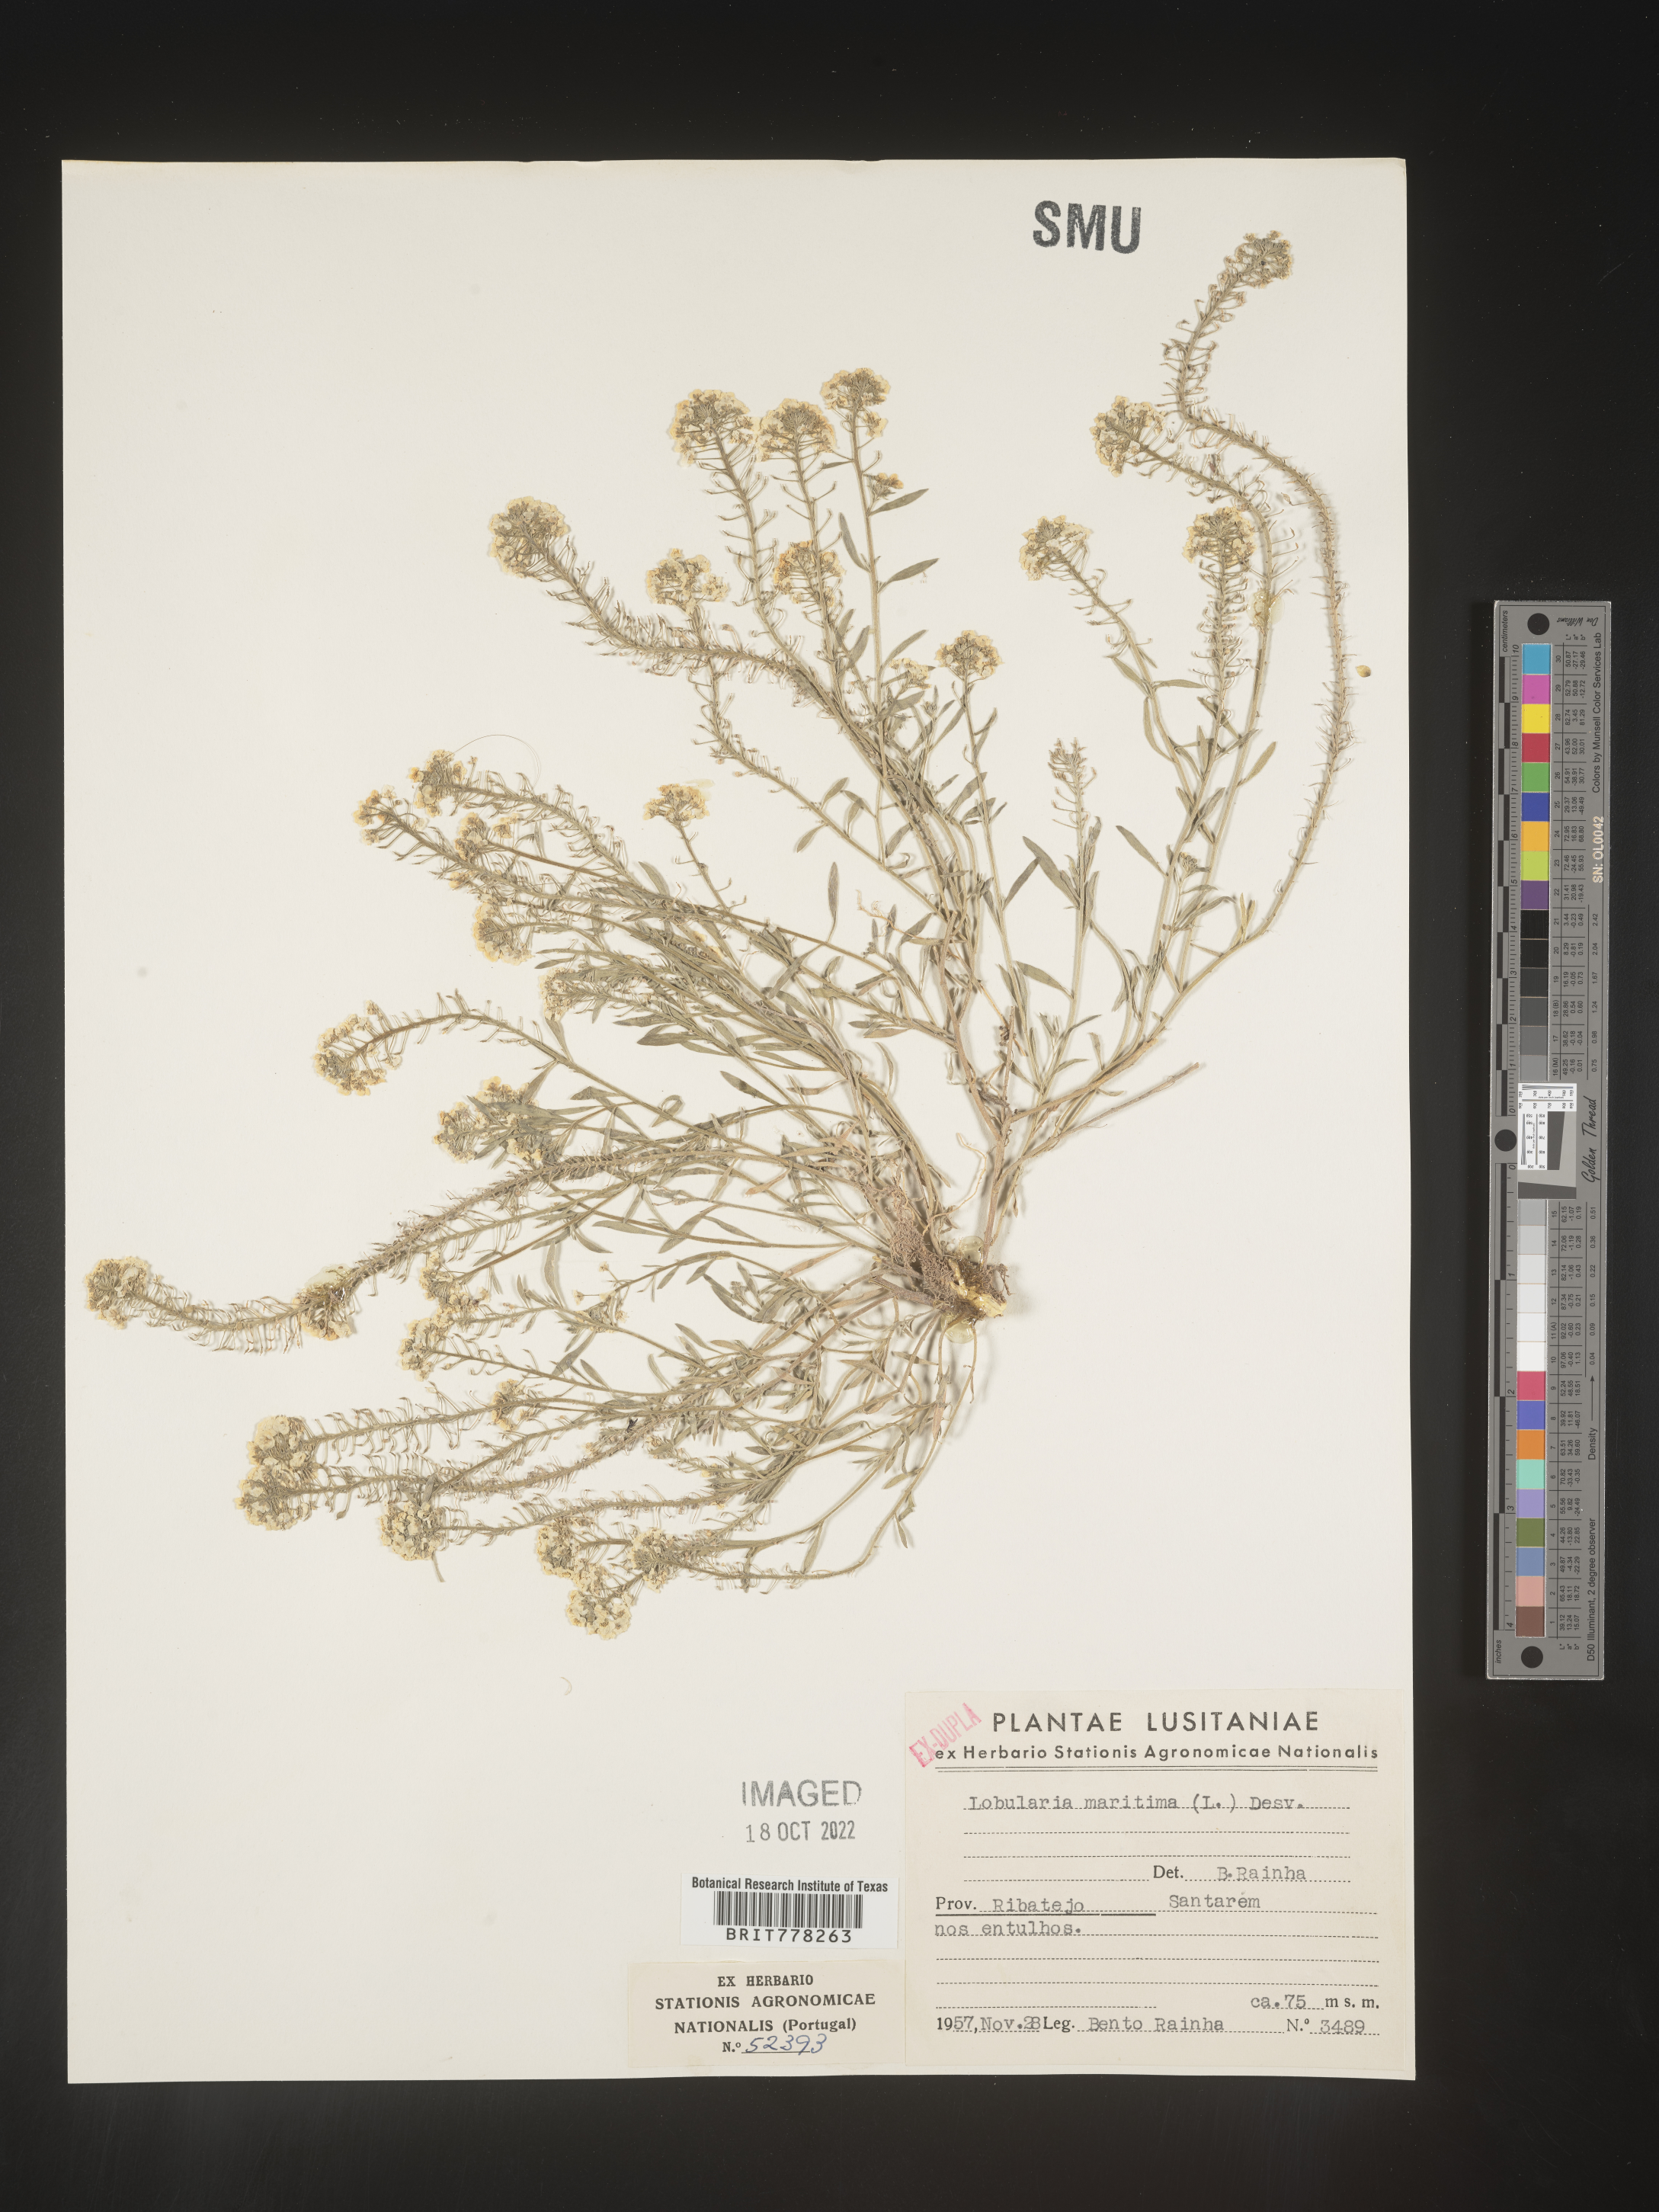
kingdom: Plantae
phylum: Tracheophyta
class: Magnoliopsida
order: Brassicales
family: Brassicaceae
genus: Lobularia
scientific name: Lobularia
